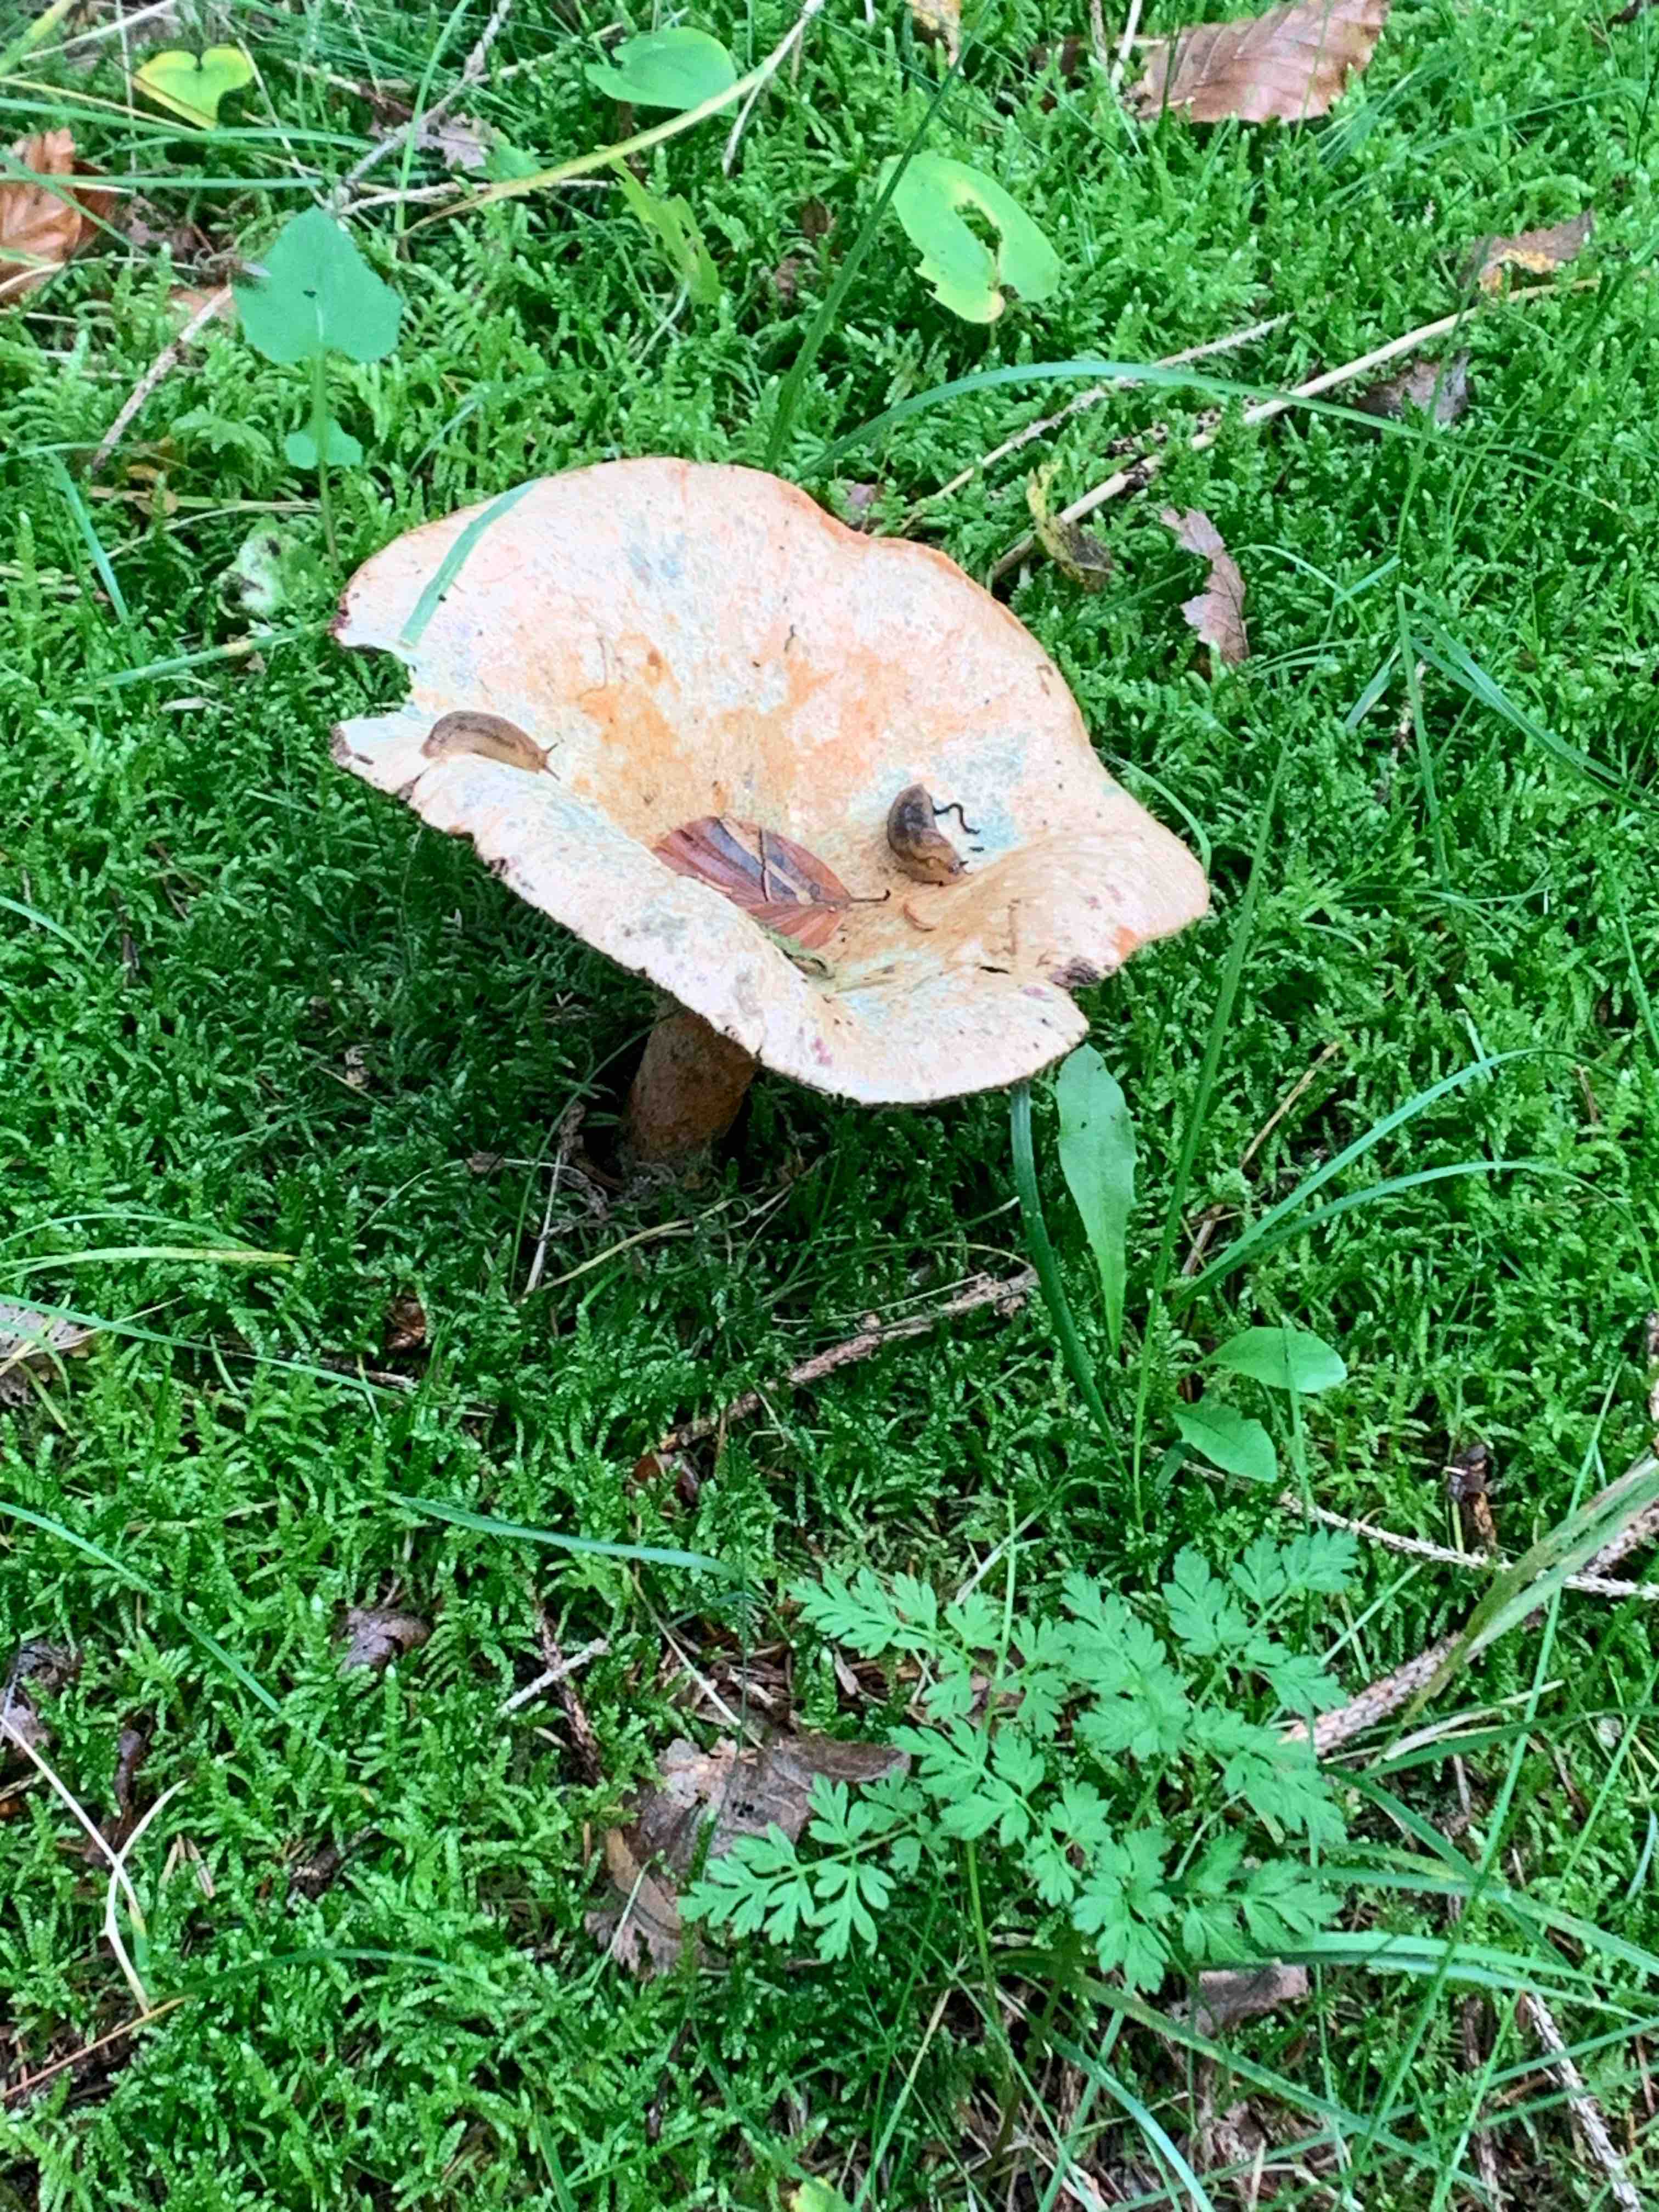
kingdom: Fungi
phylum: Basidiomycota
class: Agaricomycetes
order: Russulales
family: Russulaceae
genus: Lactarius
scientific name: Lactarius deterrimus
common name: gran-mælkehat
